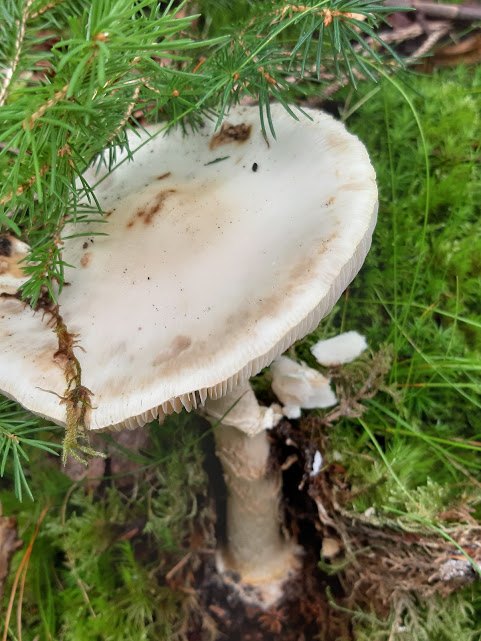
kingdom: Fungi
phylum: Basidiomycota
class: Agaricomycetes
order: Agaricales
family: Amanitaceae
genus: Amanita
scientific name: Amanita citrina
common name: False death-cap
